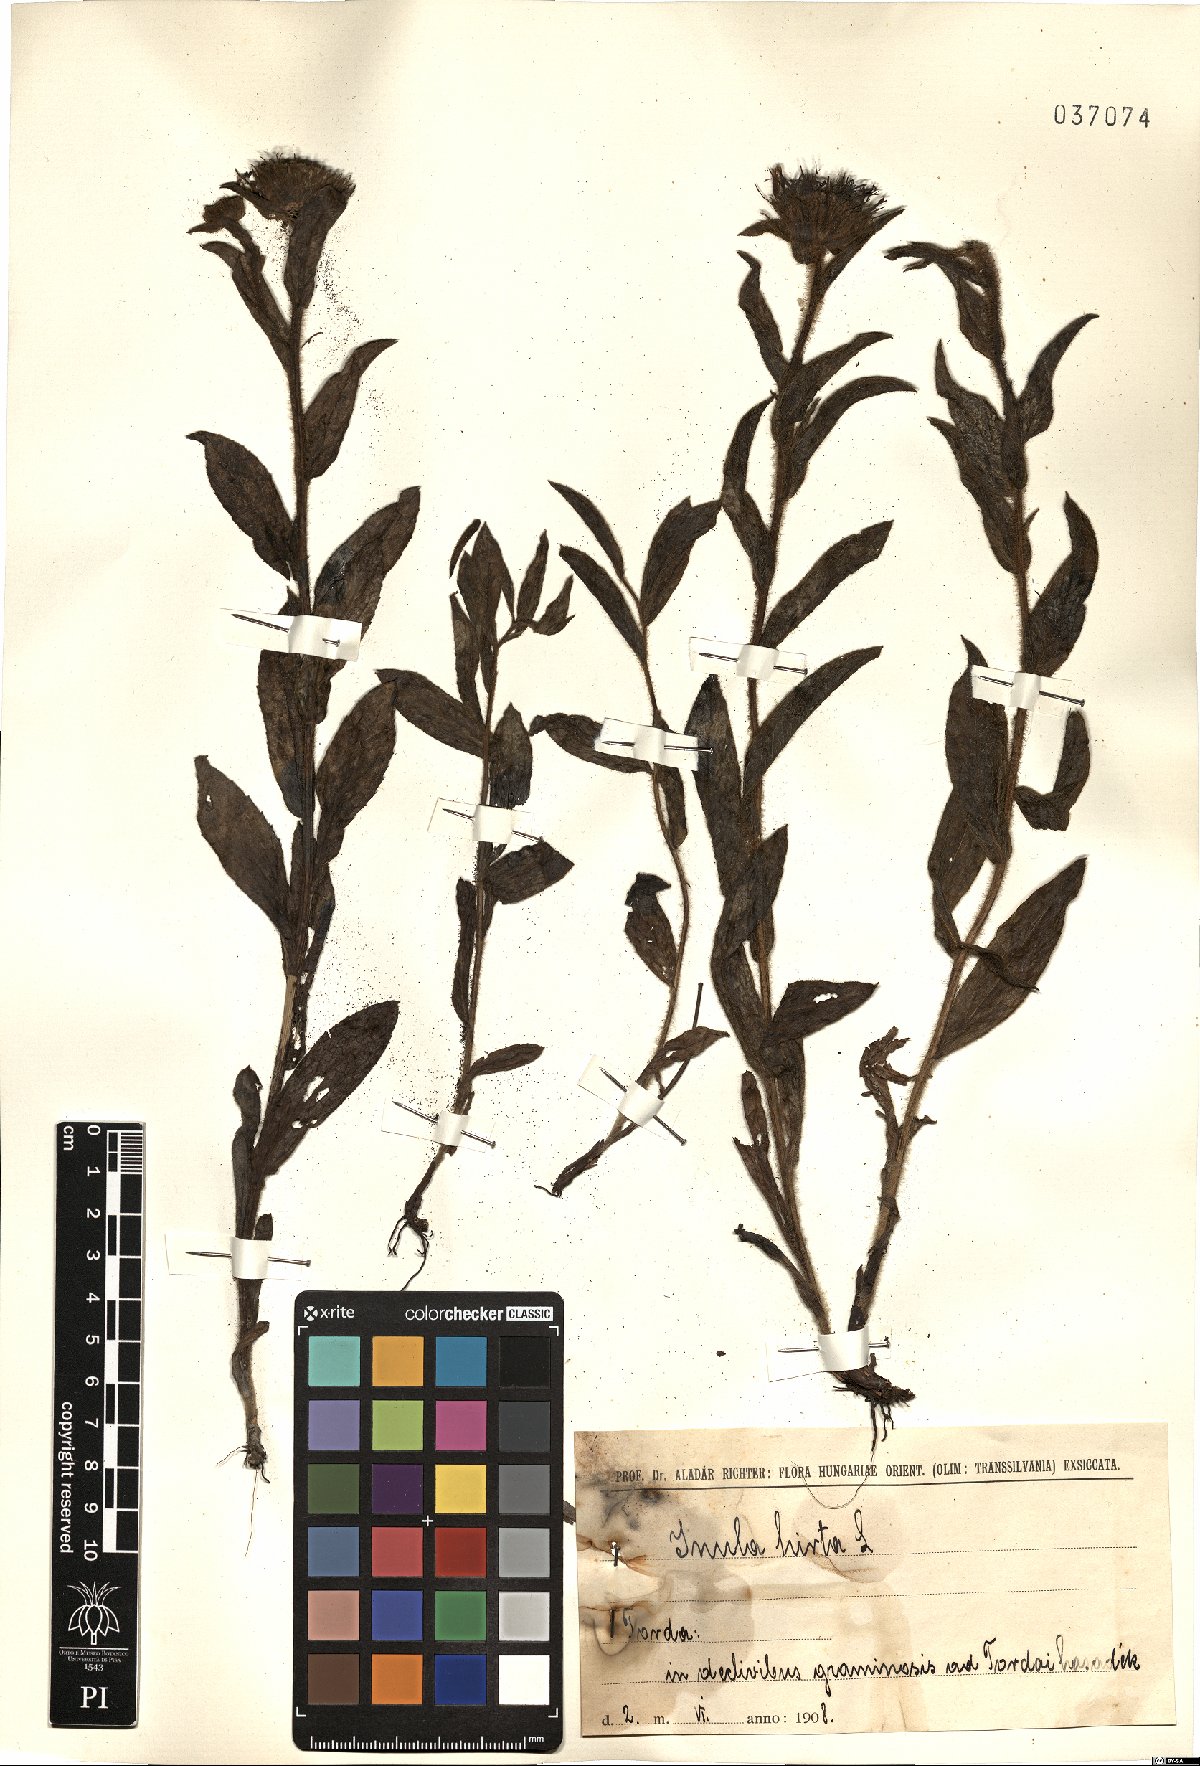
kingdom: Plantae
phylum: Tracheophyta
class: Magnoliopsida
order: Asterales
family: Asteraceae
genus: Pentanema
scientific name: Pentanema hirtum
